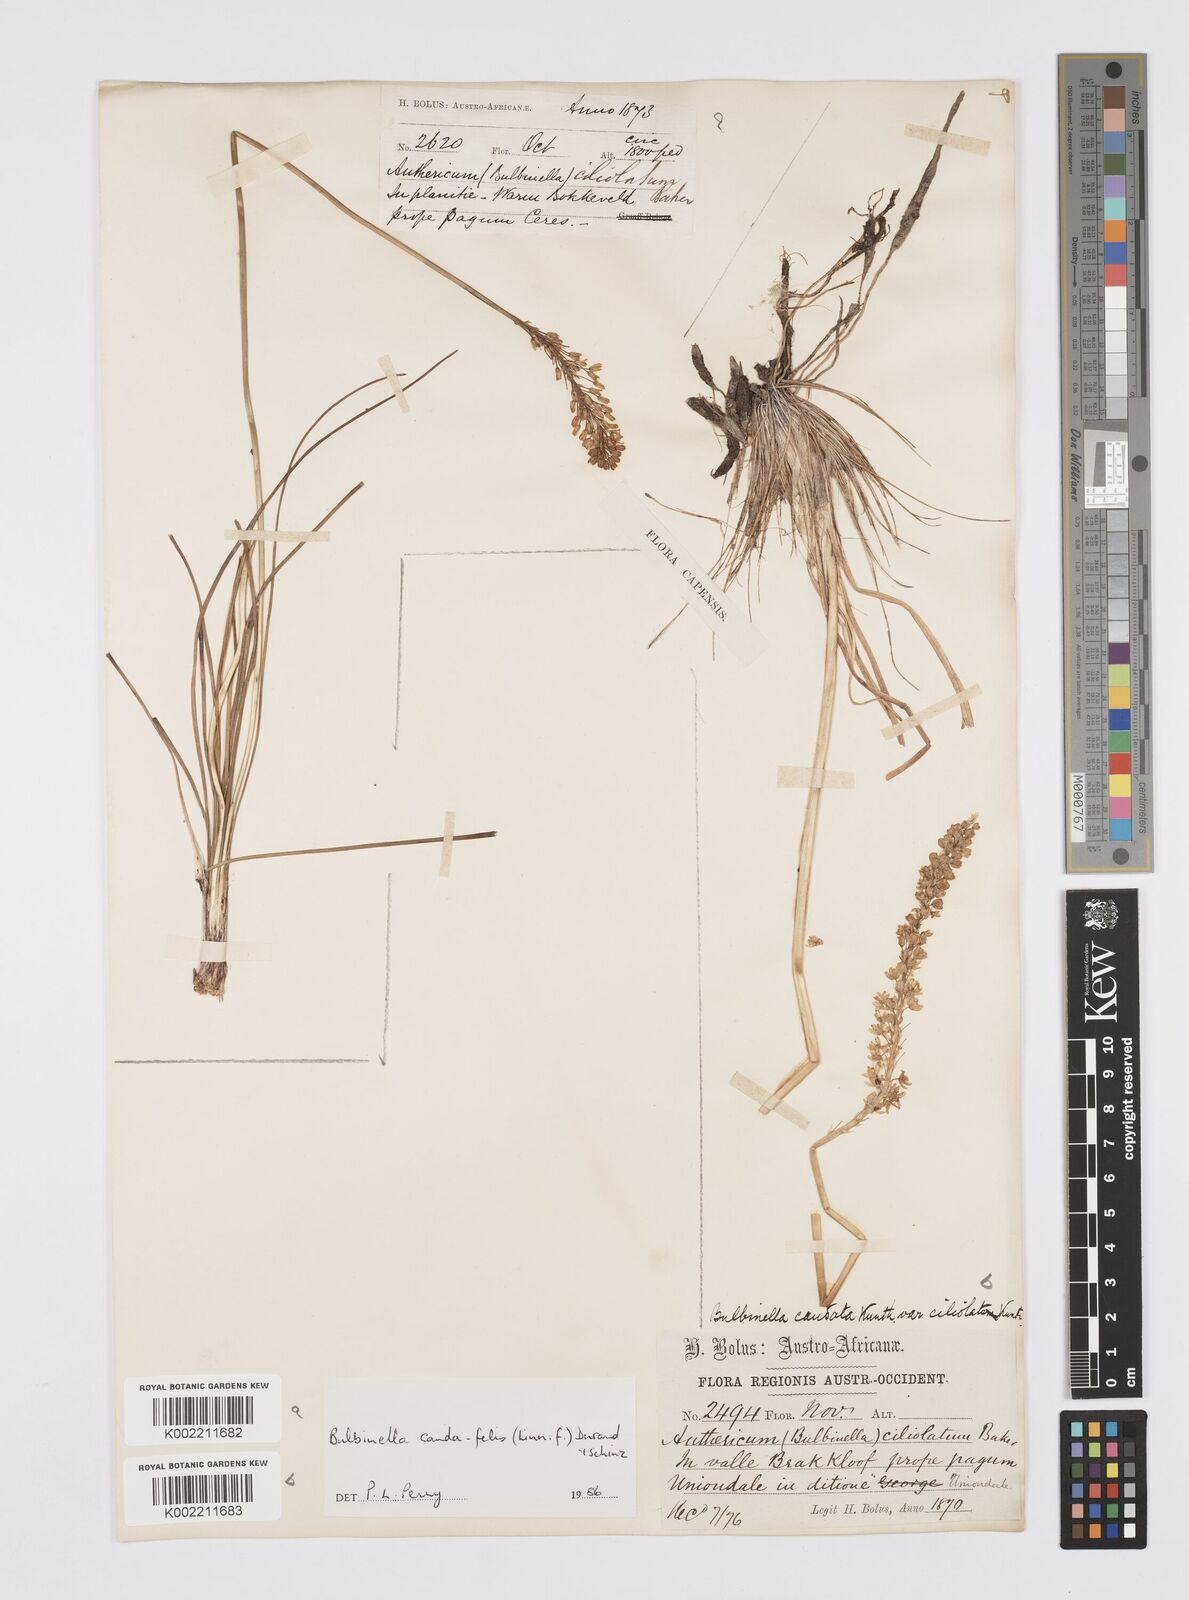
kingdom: Plantae
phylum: Tracheophyta
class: Liliopsida
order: Asparagales
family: Asphodelaceae
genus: Bulbinella
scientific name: Bulbinella cauda-felis
